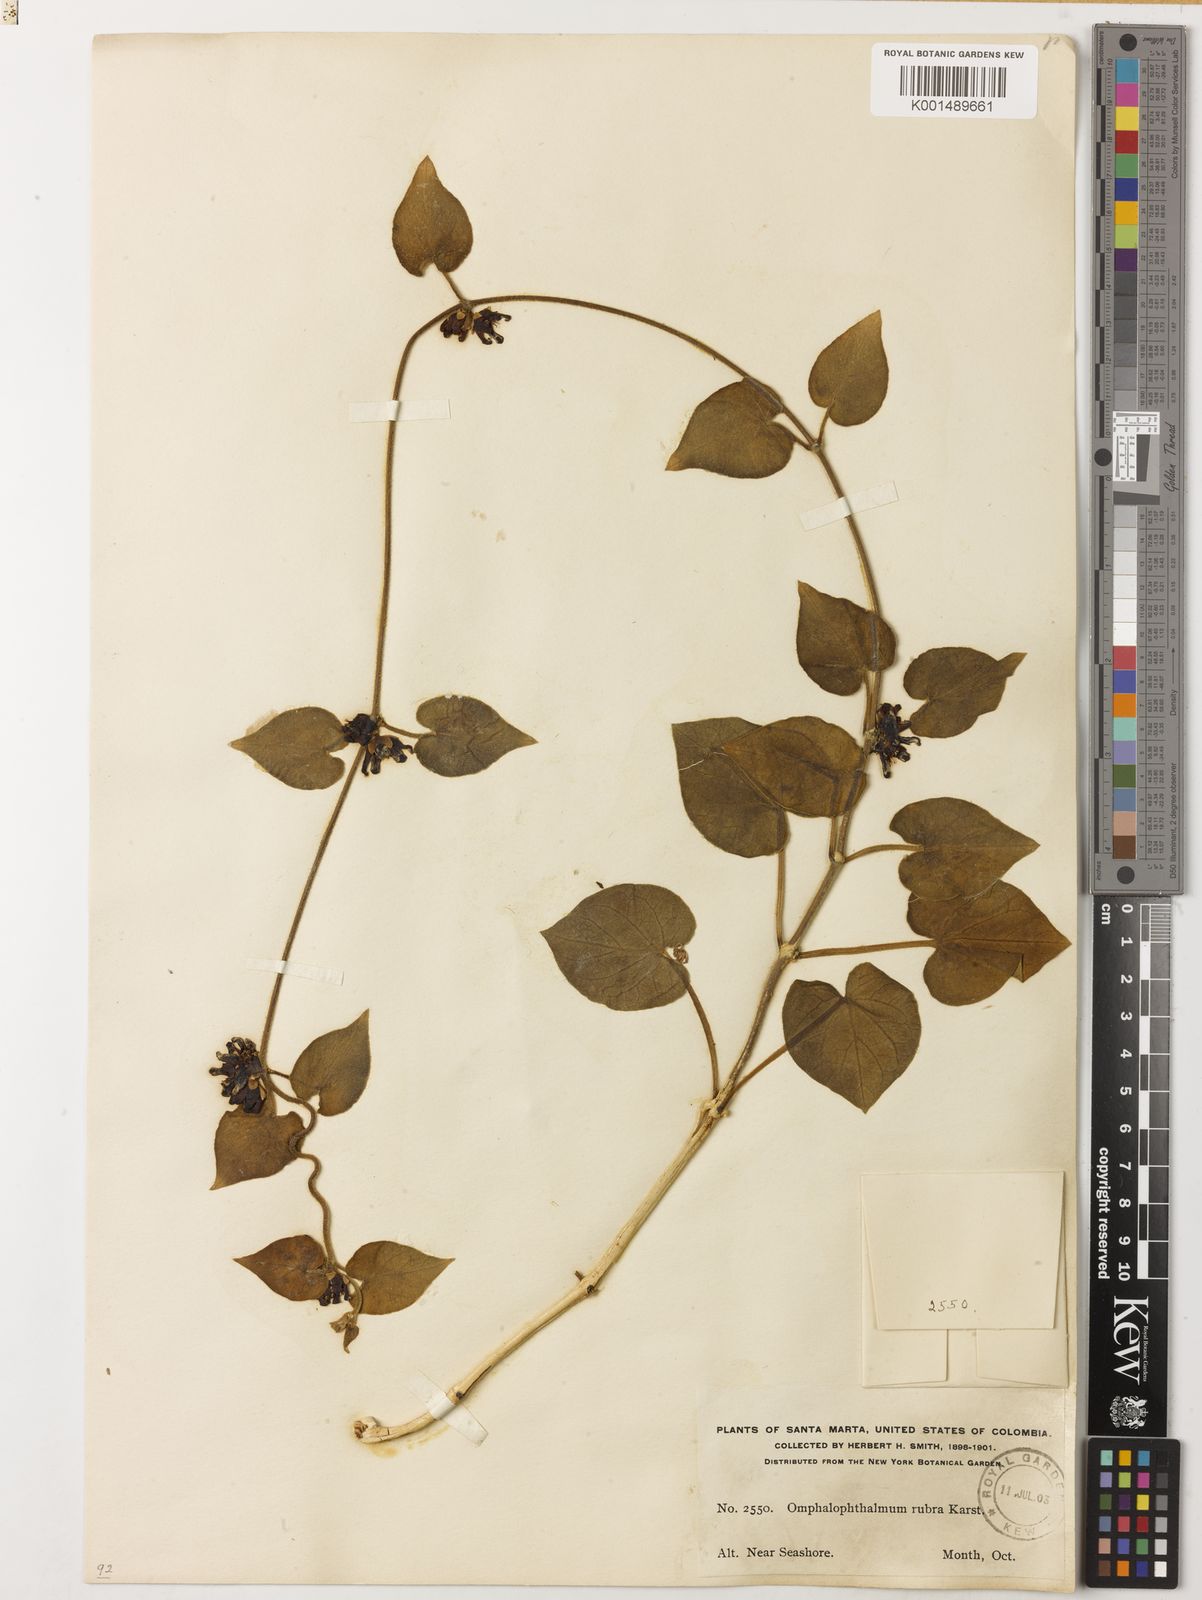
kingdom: Plantae
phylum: Tracheophyta
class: Magnoliopsida
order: Gentianales
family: Apocynaceae
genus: Ibatia
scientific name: Ibatia rubra
